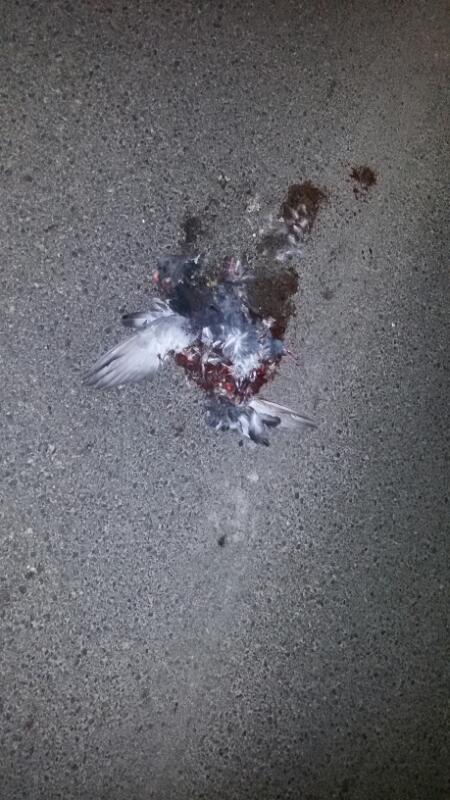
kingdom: Animalia
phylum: Chordata
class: Aves
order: Columbiformes
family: Columbidae
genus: Columba
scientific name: Columba livia
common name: Rock pigeon
